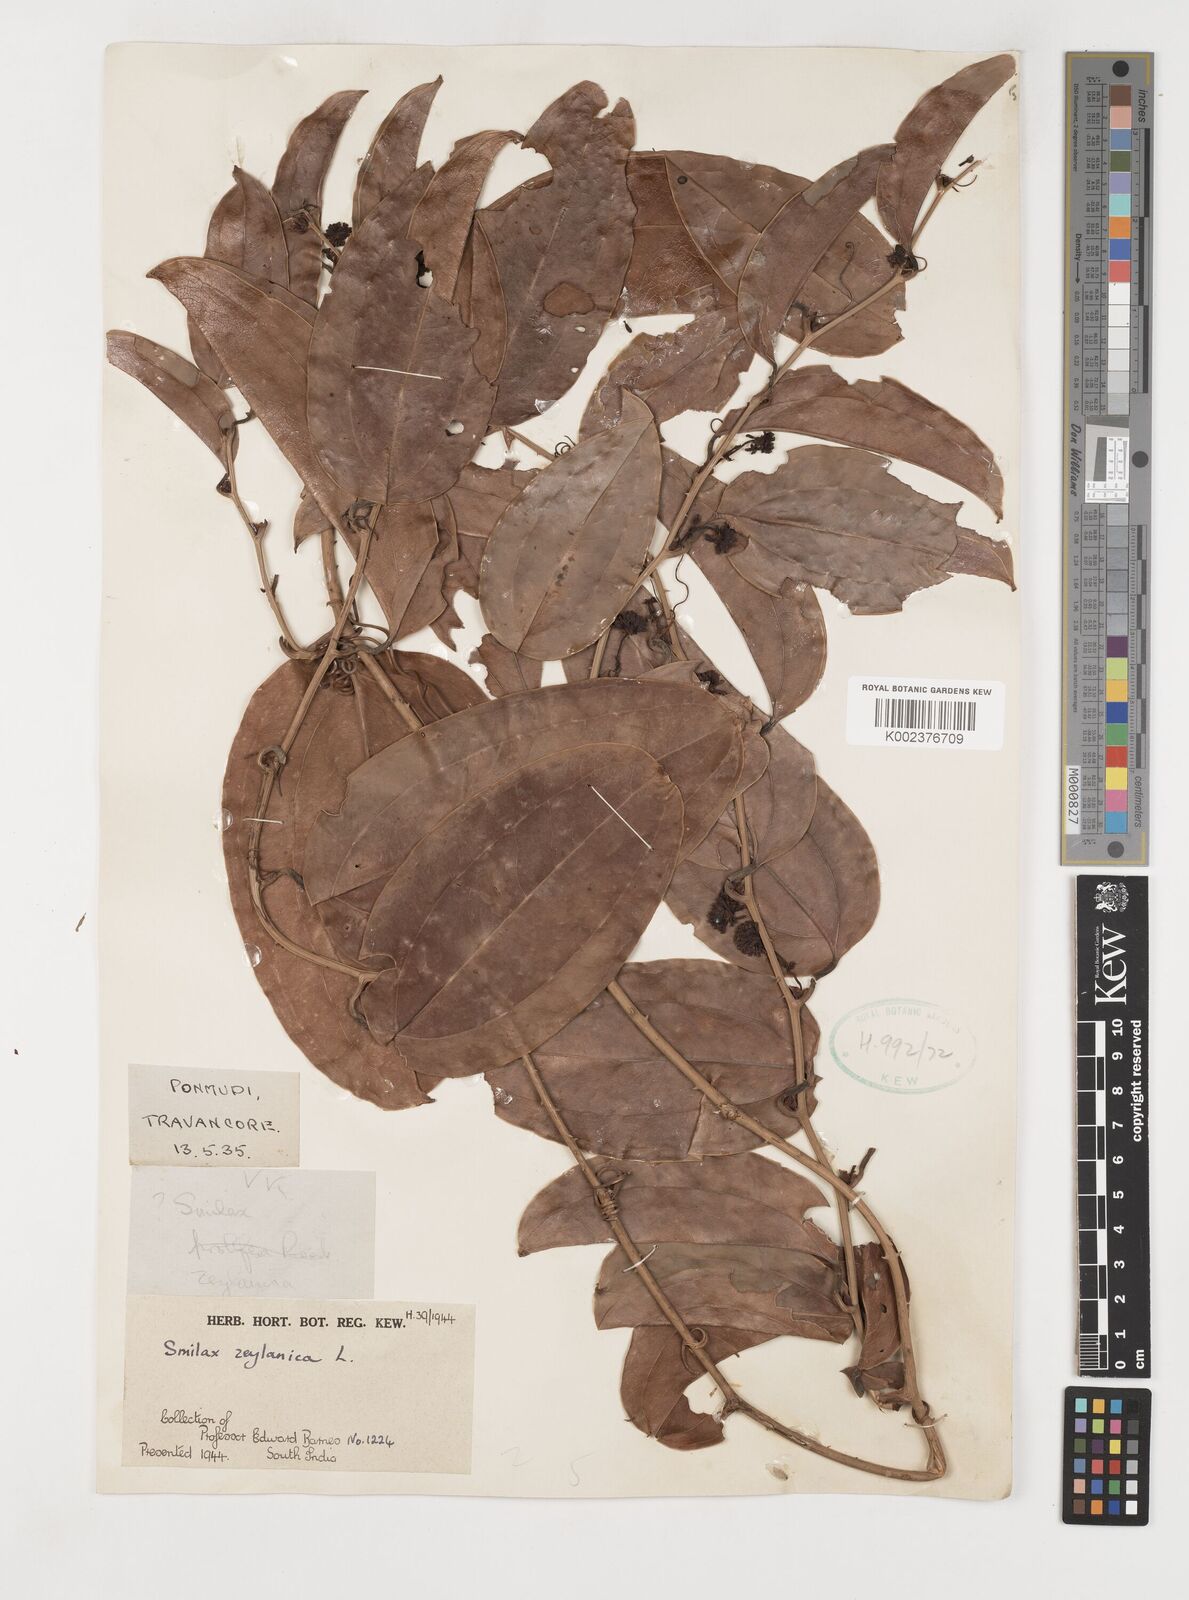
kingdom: Plantae
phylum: Tracheophyta
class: Liliopsida
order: Liliales
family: Smilacaceae
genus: Smilax
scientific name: Smilax zeylanica
